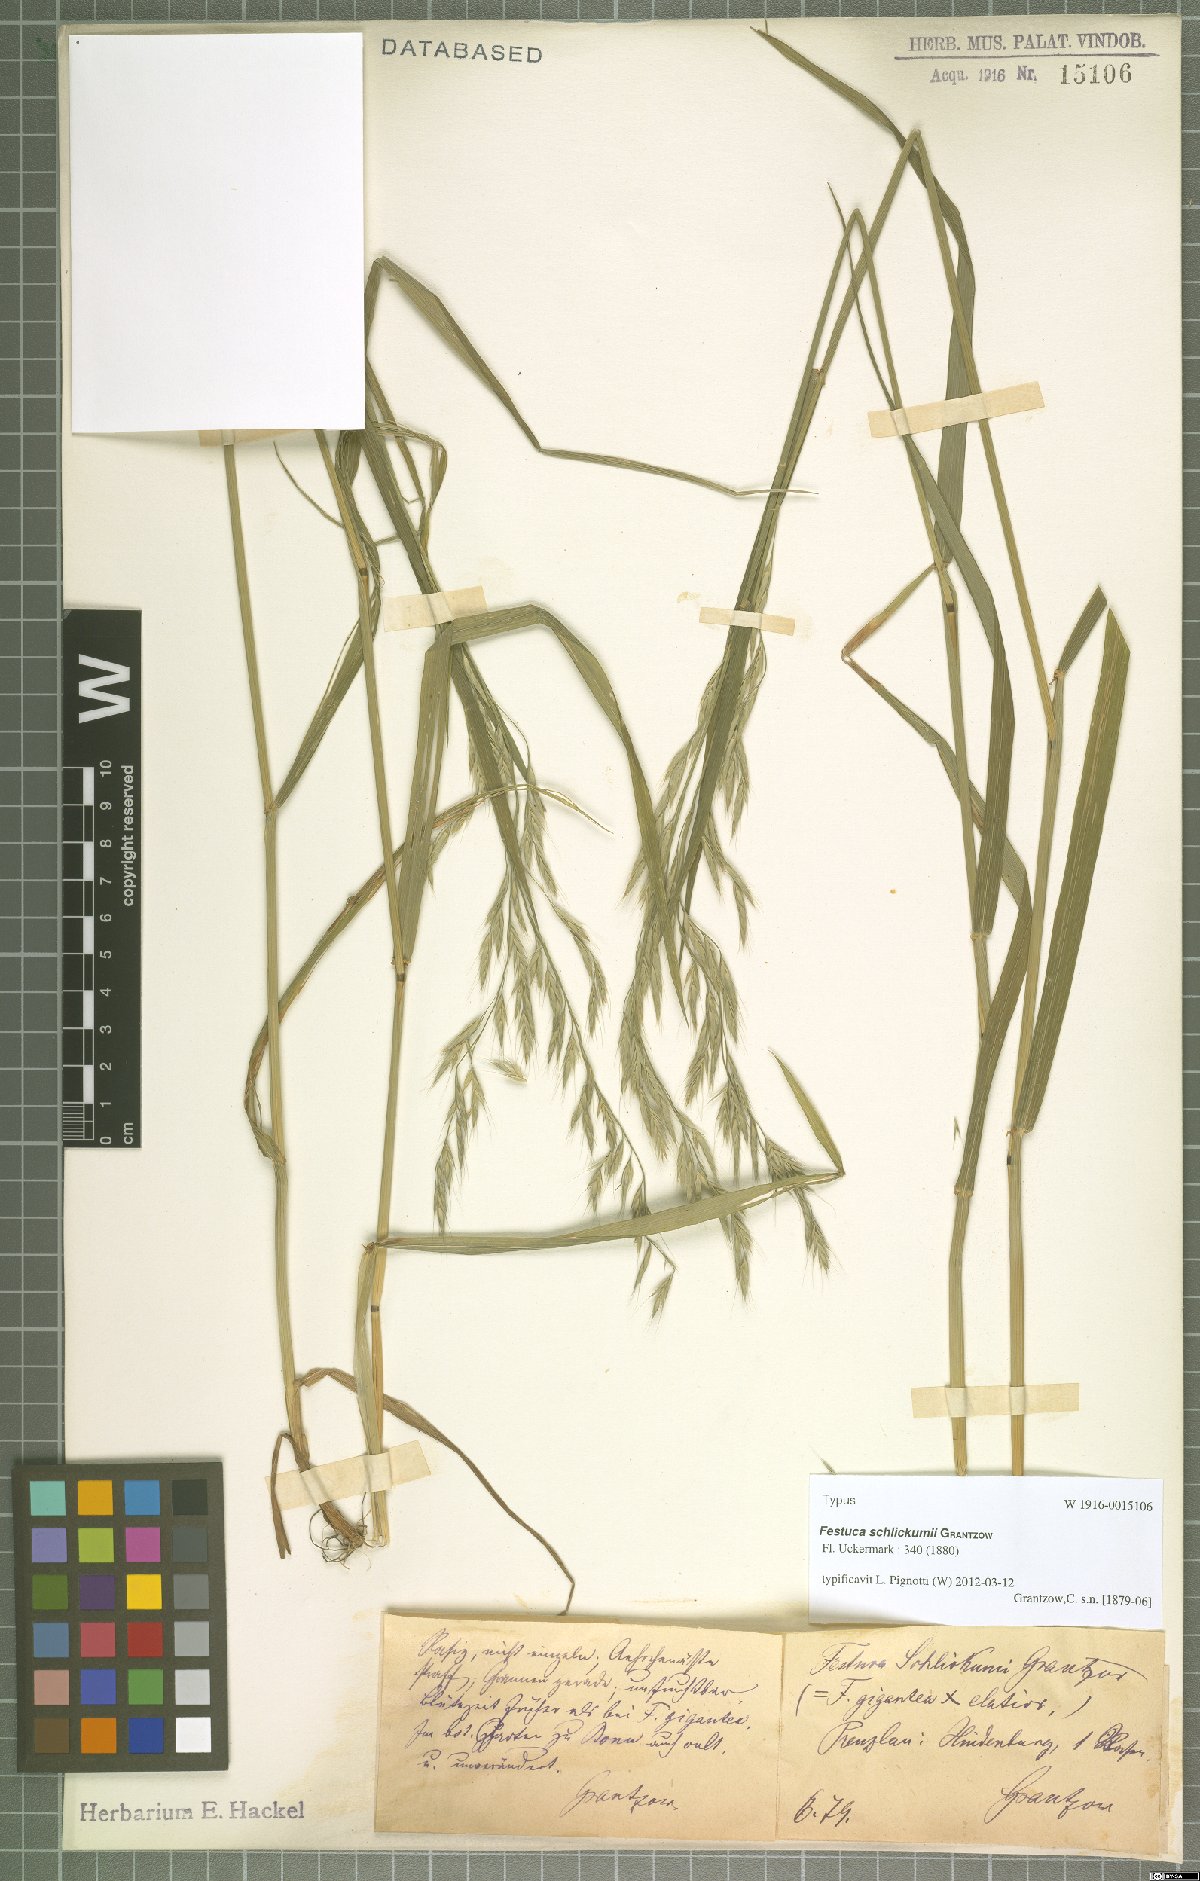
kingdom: Plantae
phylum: Tracheophyta
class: Liliopsida
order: Poales
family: Poaceae
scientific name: Poaceae
